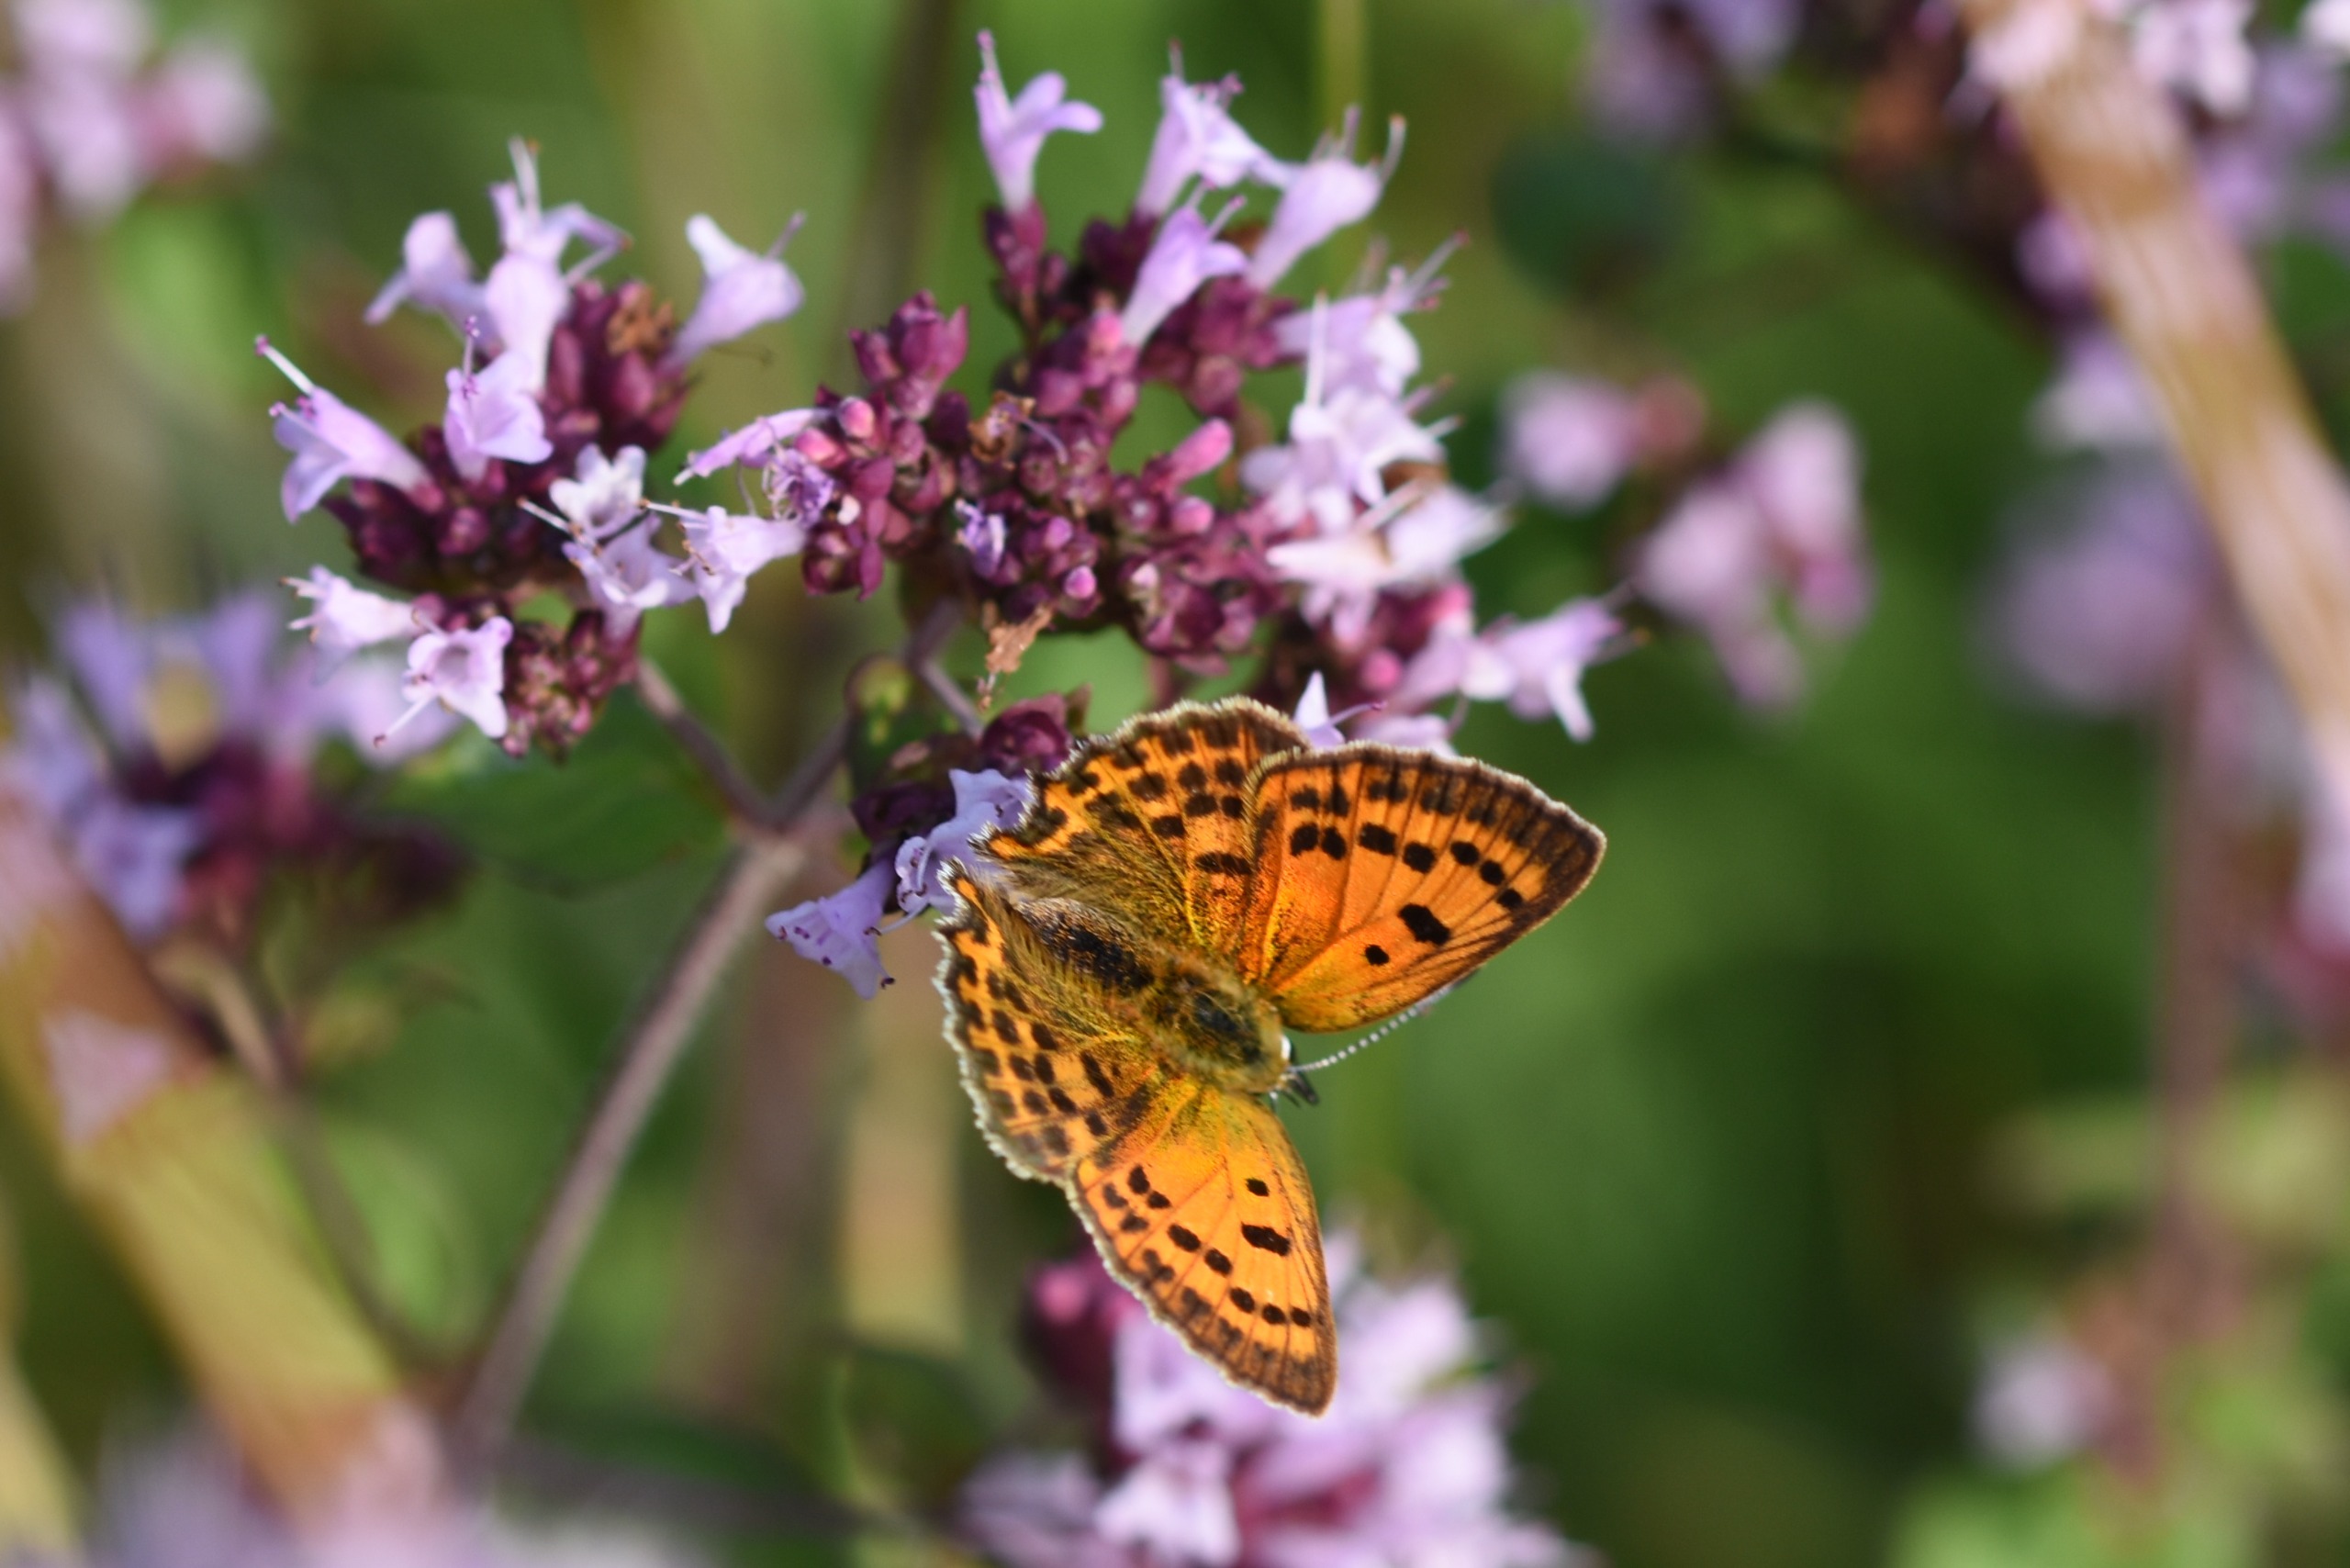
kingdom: Animalia
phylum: Arthropoda
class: Insecta
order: Lepidoptera
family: Lycaenidae
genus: Lycaena
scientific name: Lycaena virgaureae
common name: Dukatsommerfugl
